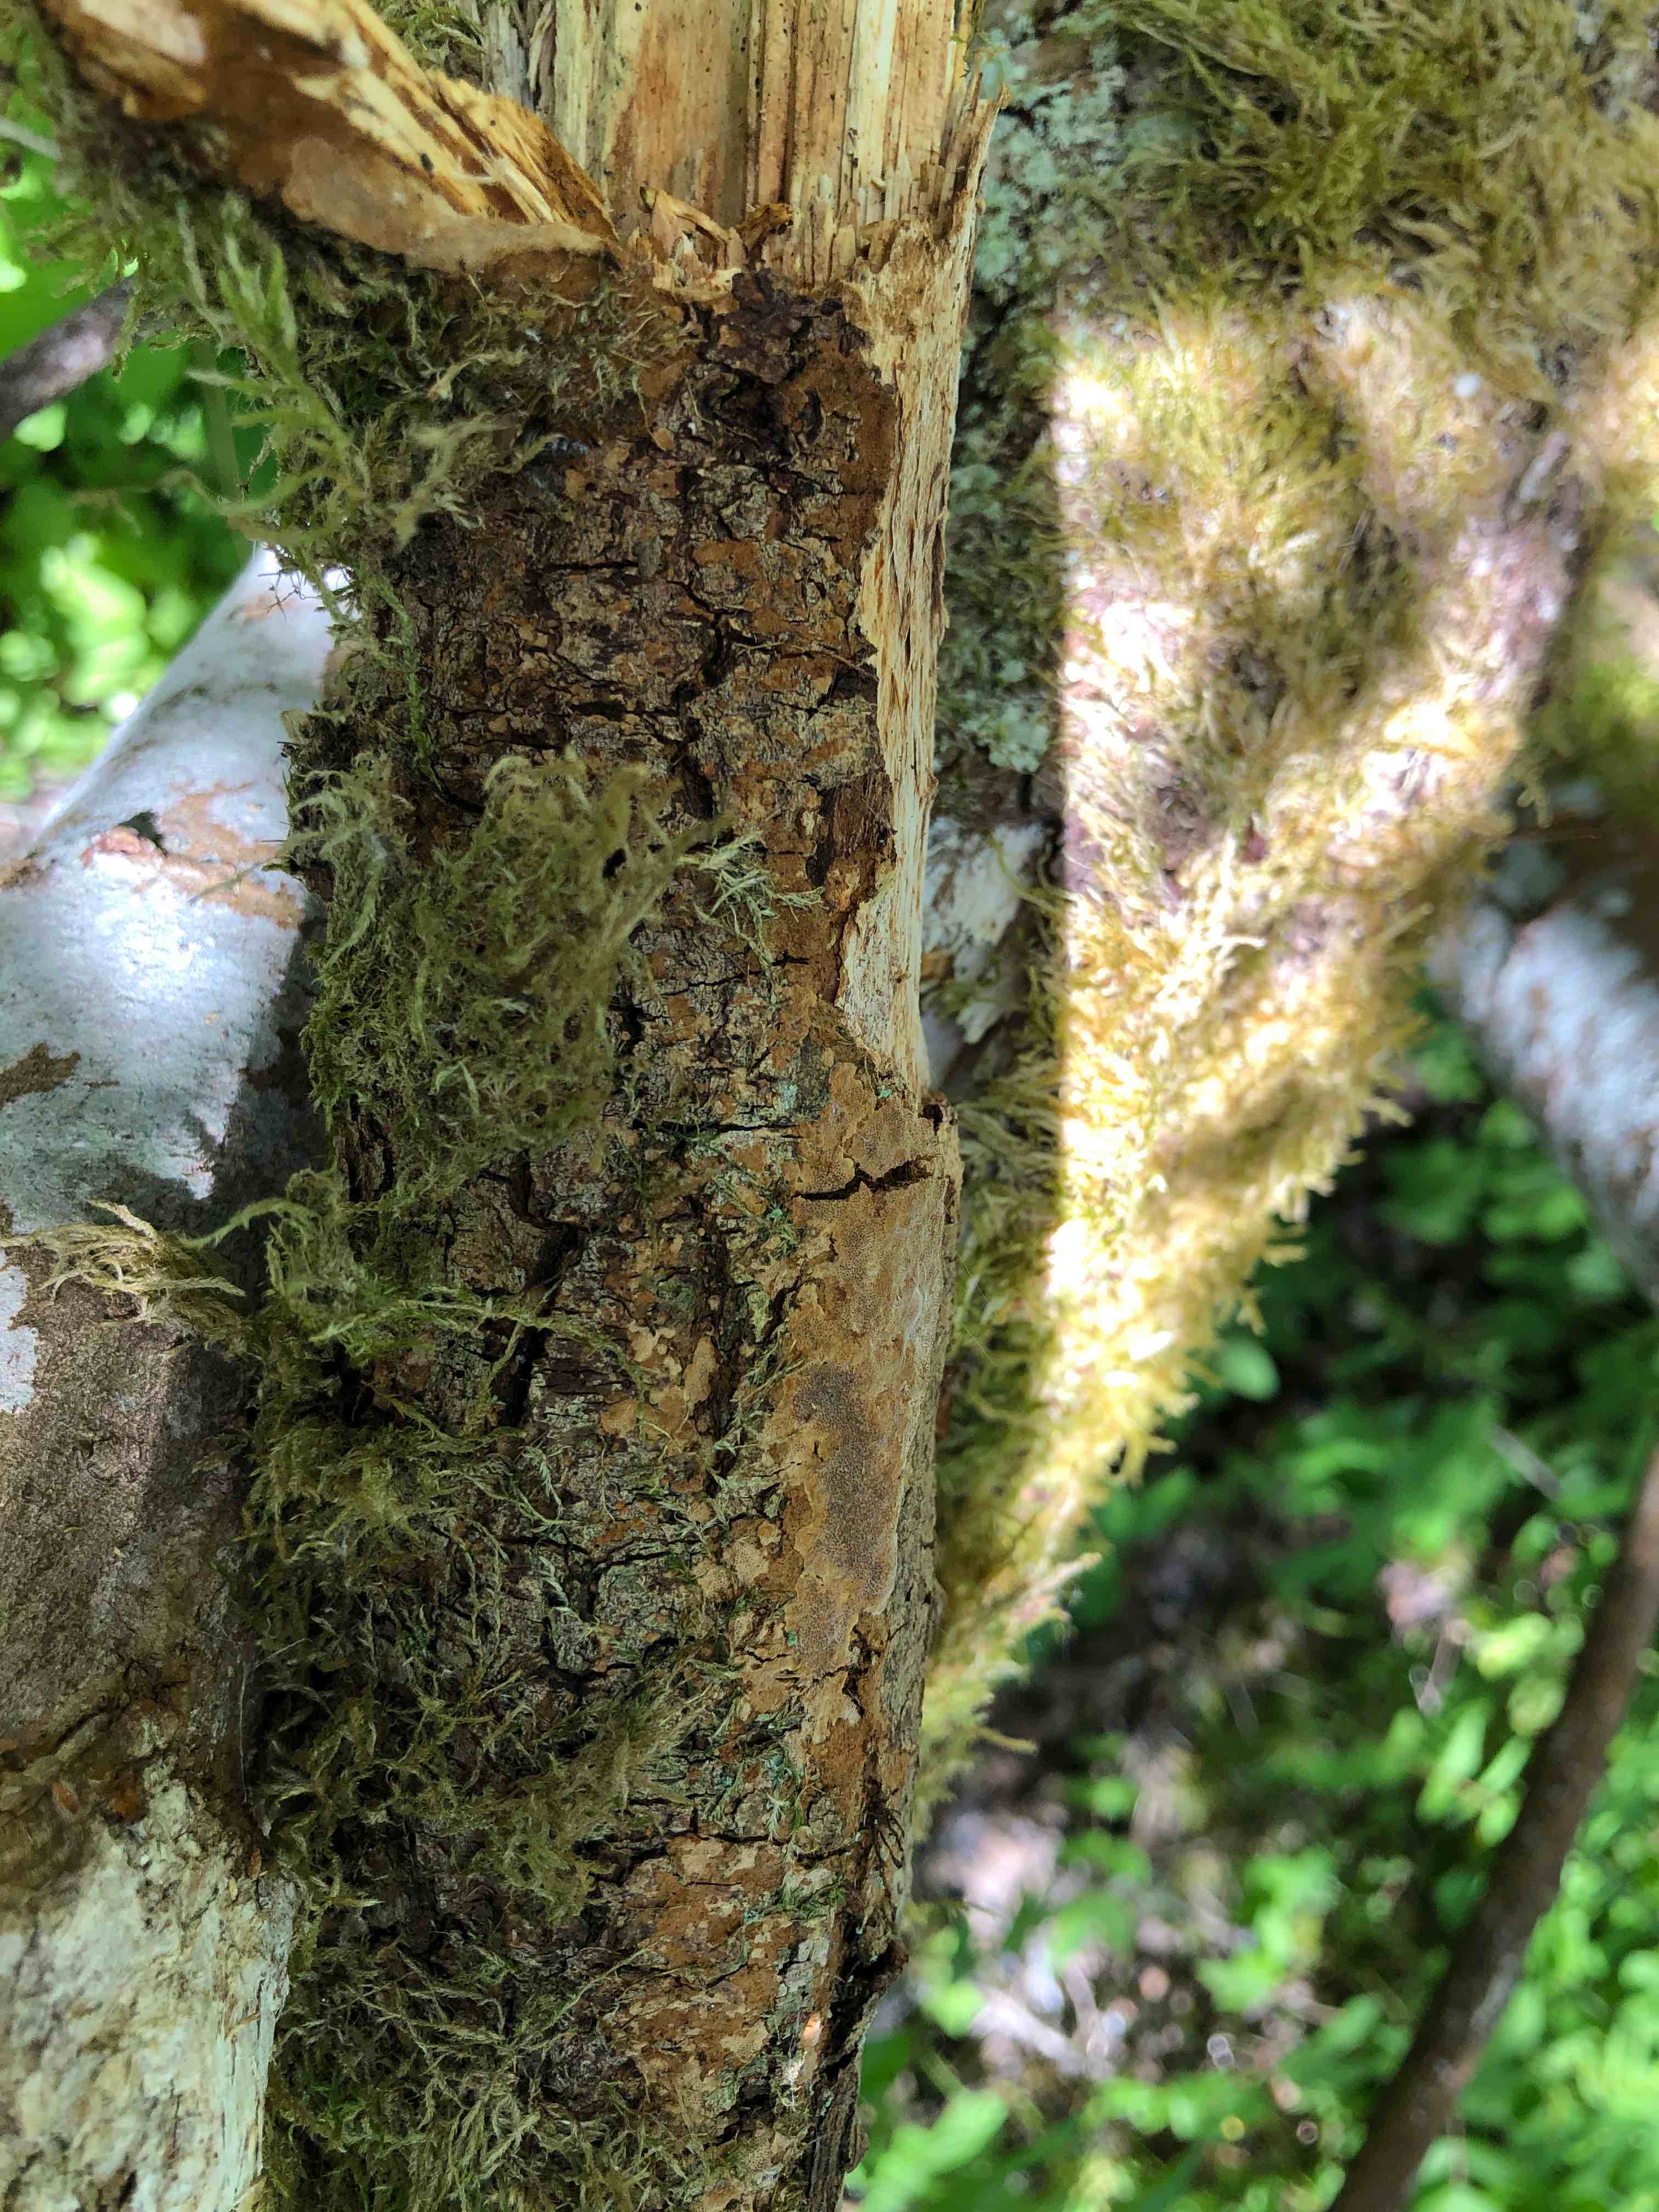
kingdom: Fungi
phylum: Basidiomycota
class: Agaricomycetes
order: Hymenochaetales
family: Hymenochaetaceae
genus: Fuscoporia
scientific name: Fuscoporia ferrea
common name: skorpe-ildporesvamp
